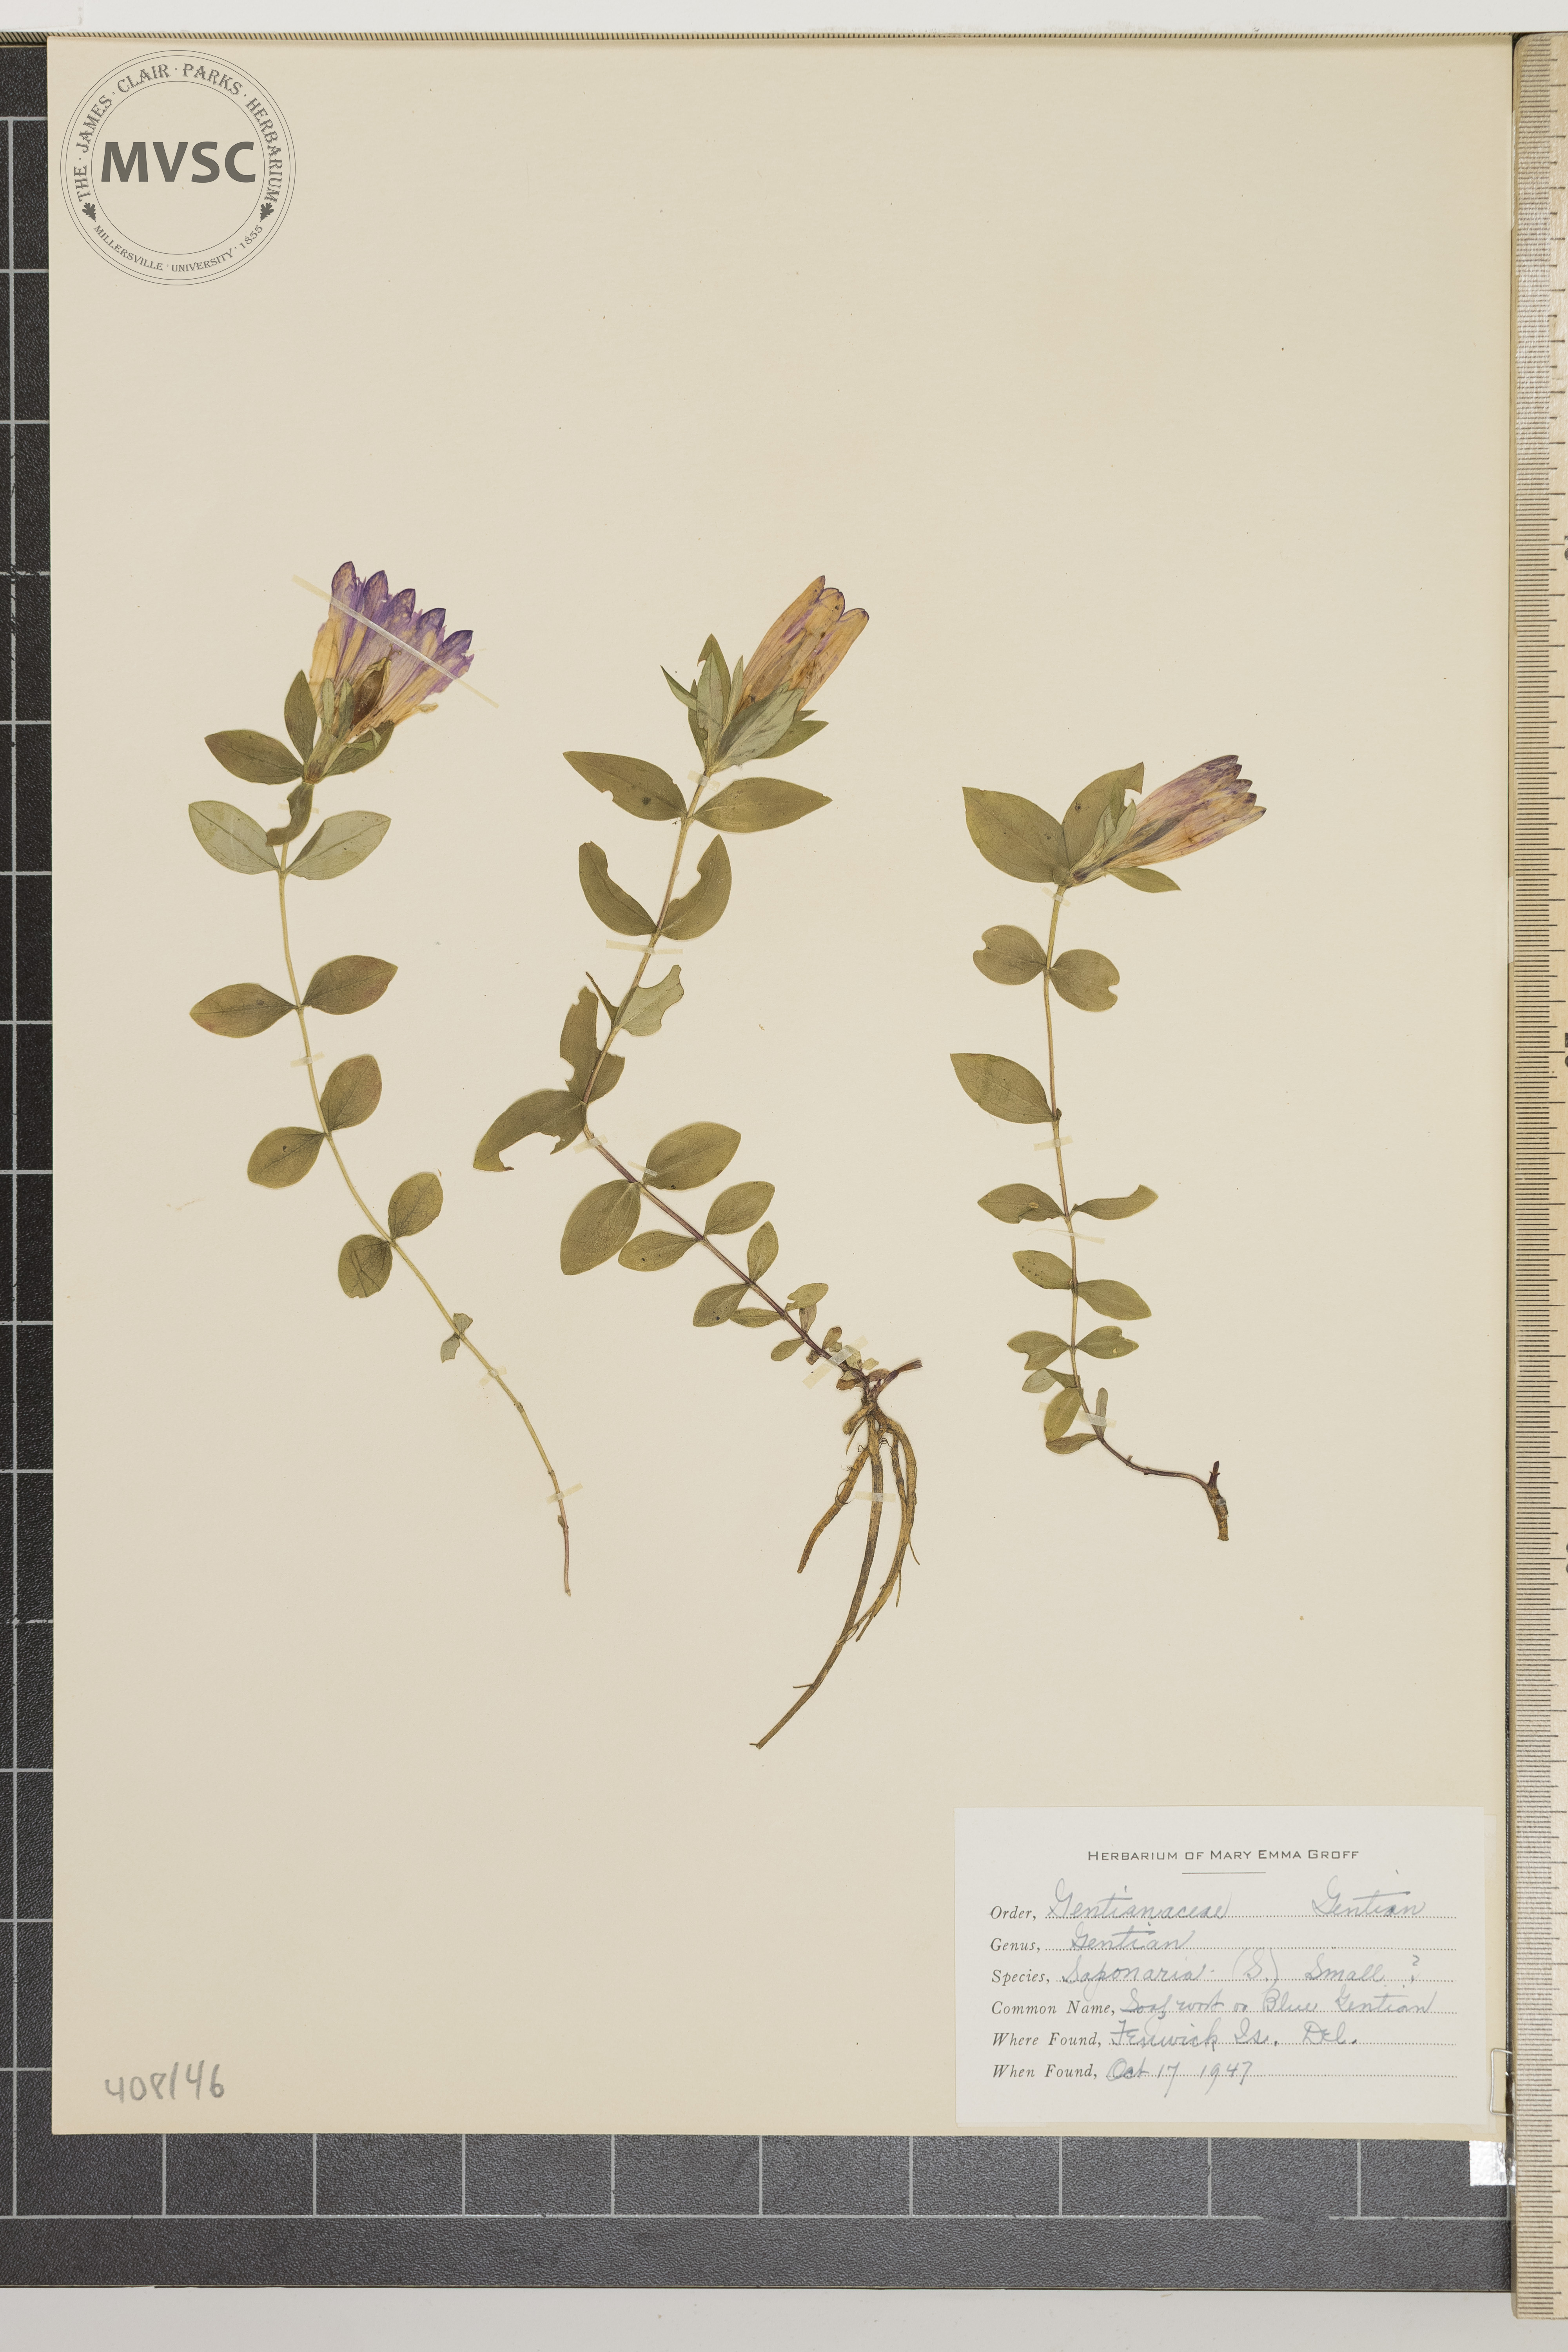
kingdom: Plantae
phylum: Tracheophyta
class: Magnoliopsida
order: Gentianales
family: Gentianaceae
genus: Gentiana
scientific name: Gentiana saponaria
